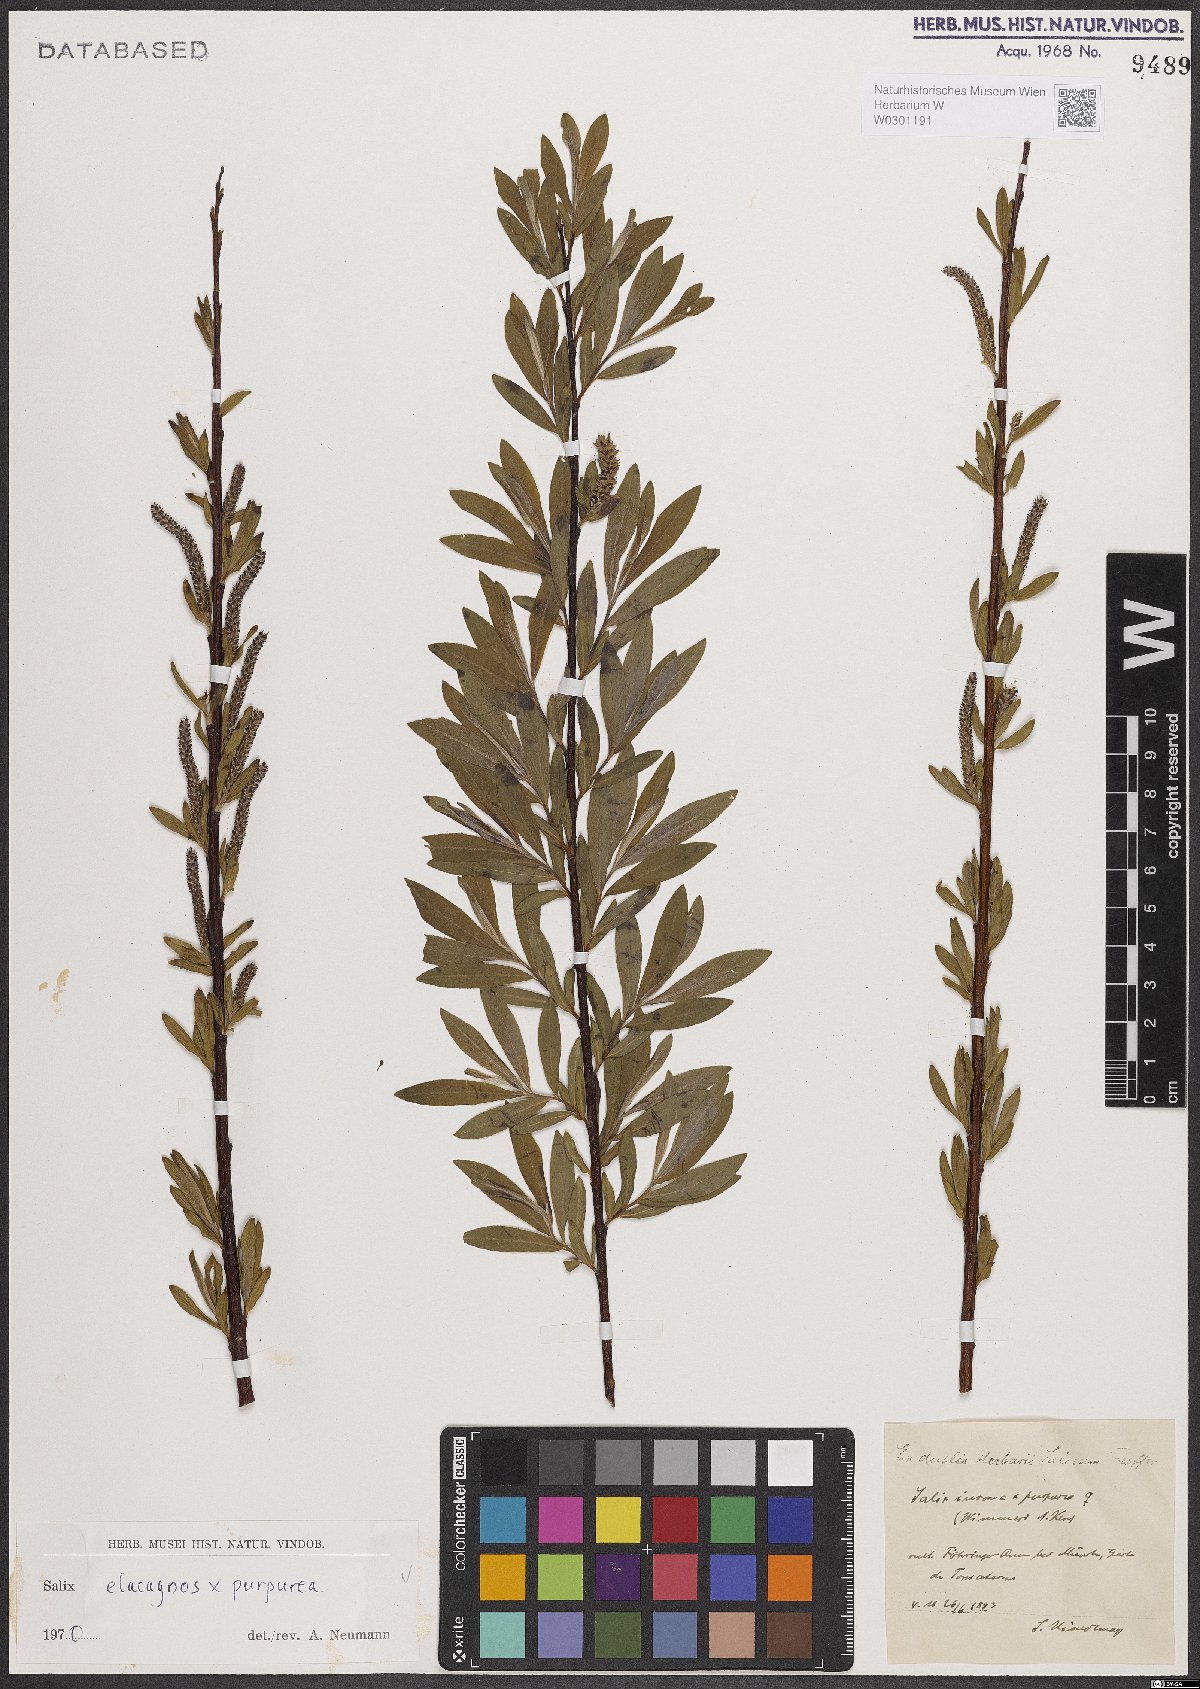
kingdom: Plantae
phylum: Tracheophyta
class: Magnoliopsida
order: Malpighiales
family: Salicaceae
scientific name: Salicaceae
